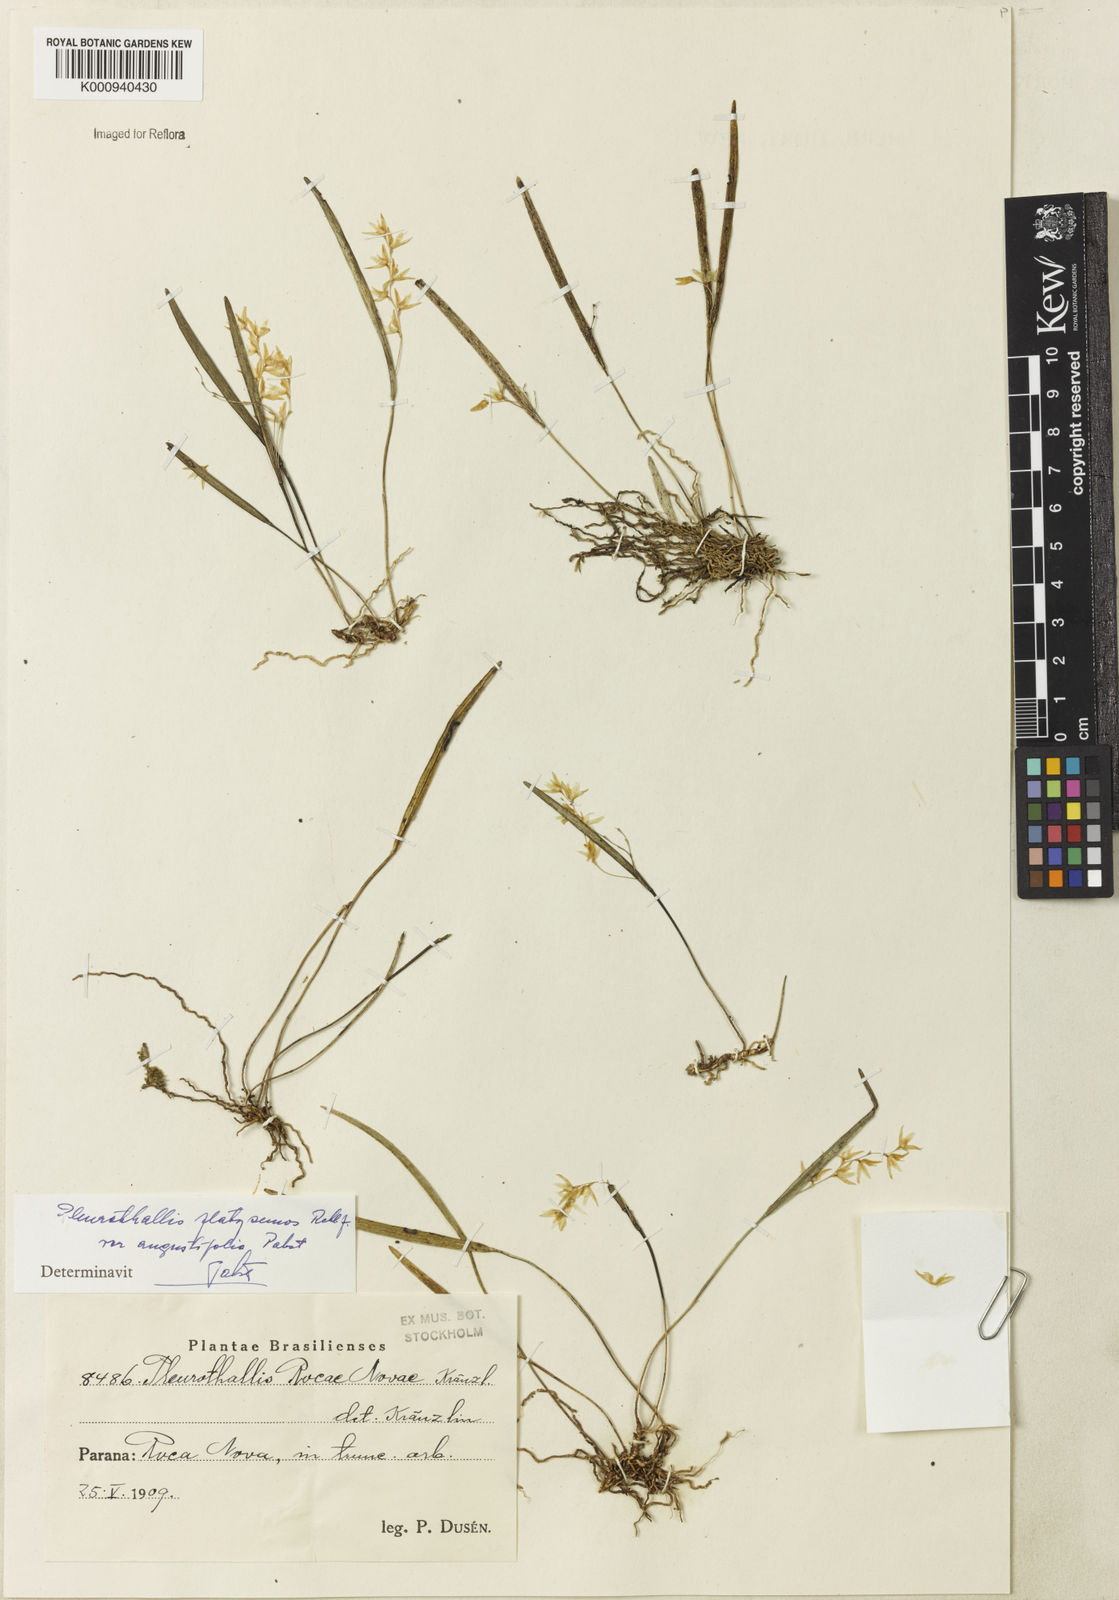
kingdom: Plantae
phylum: Tracheophyta
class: Liliopsida
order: Asparagales
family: Orchidaceae
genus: Acianthera
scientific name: Acianthera
